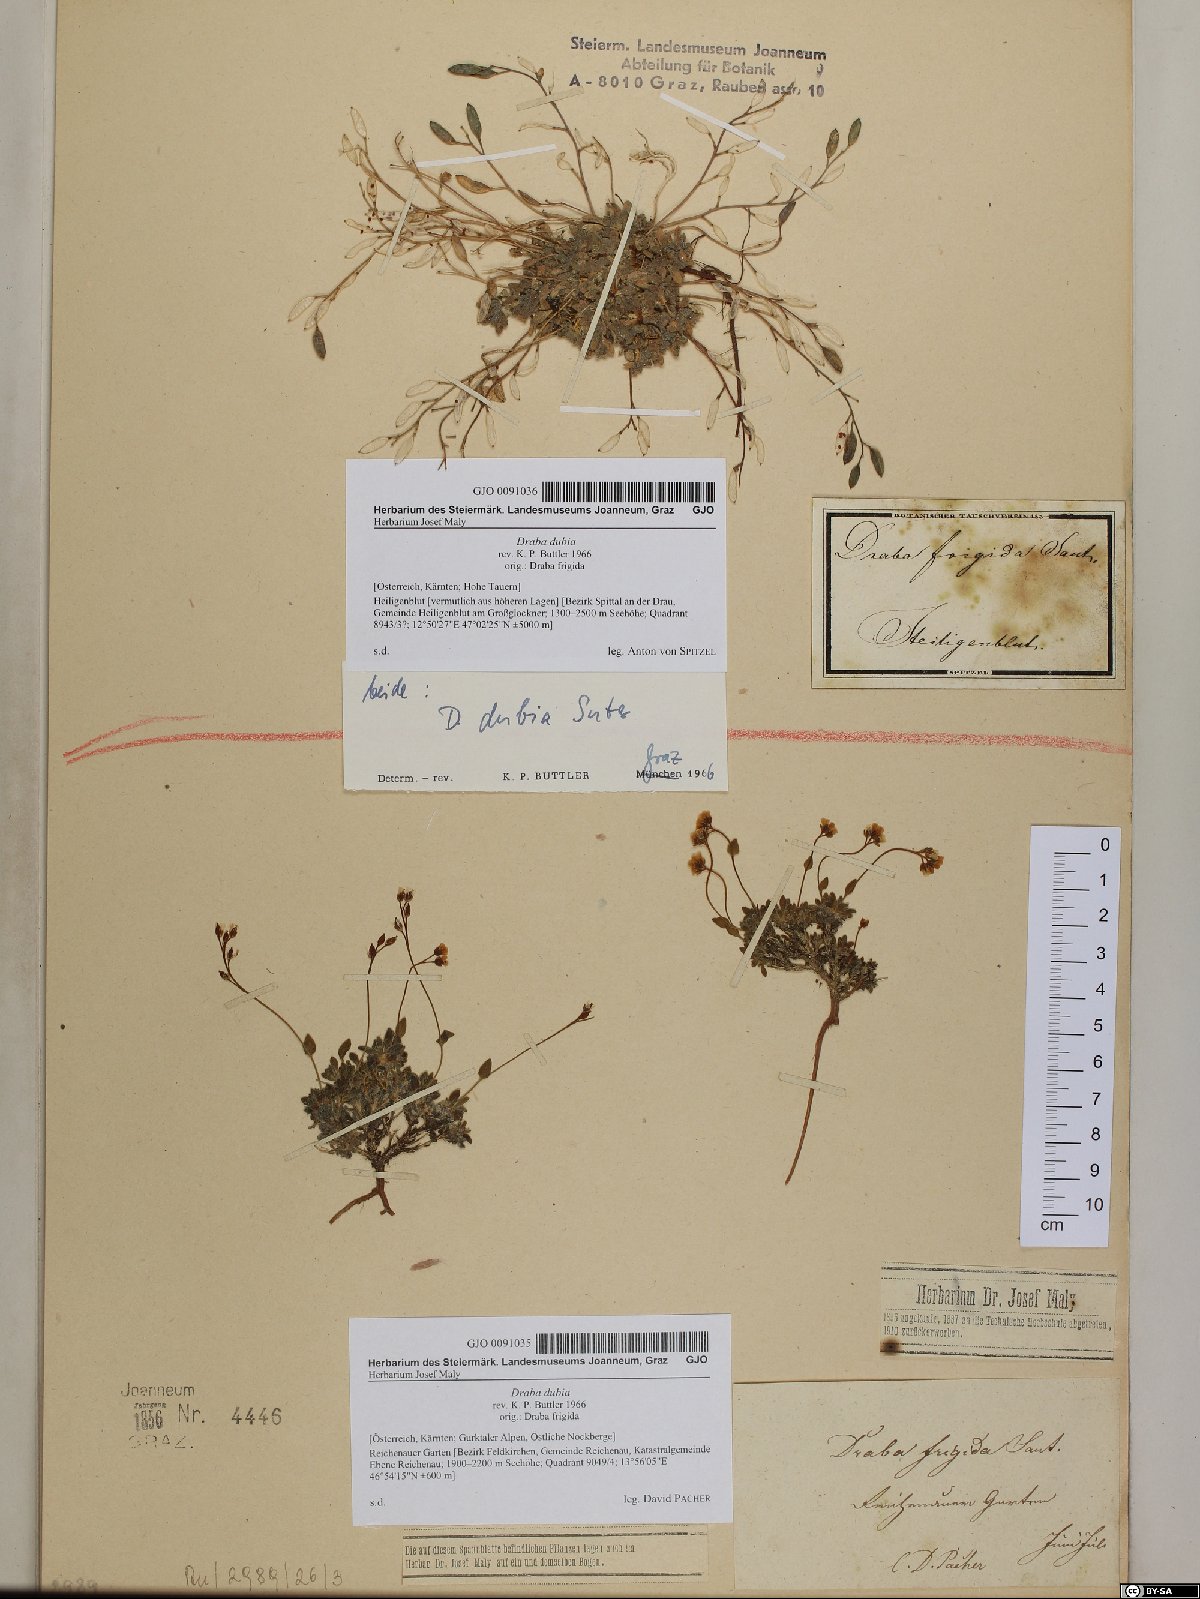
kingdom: Plantae
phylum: Tracheophyta
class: Magnoliopsida
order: Brassicales
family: Brassicaceae
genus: Draba
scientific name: Draba dubia
